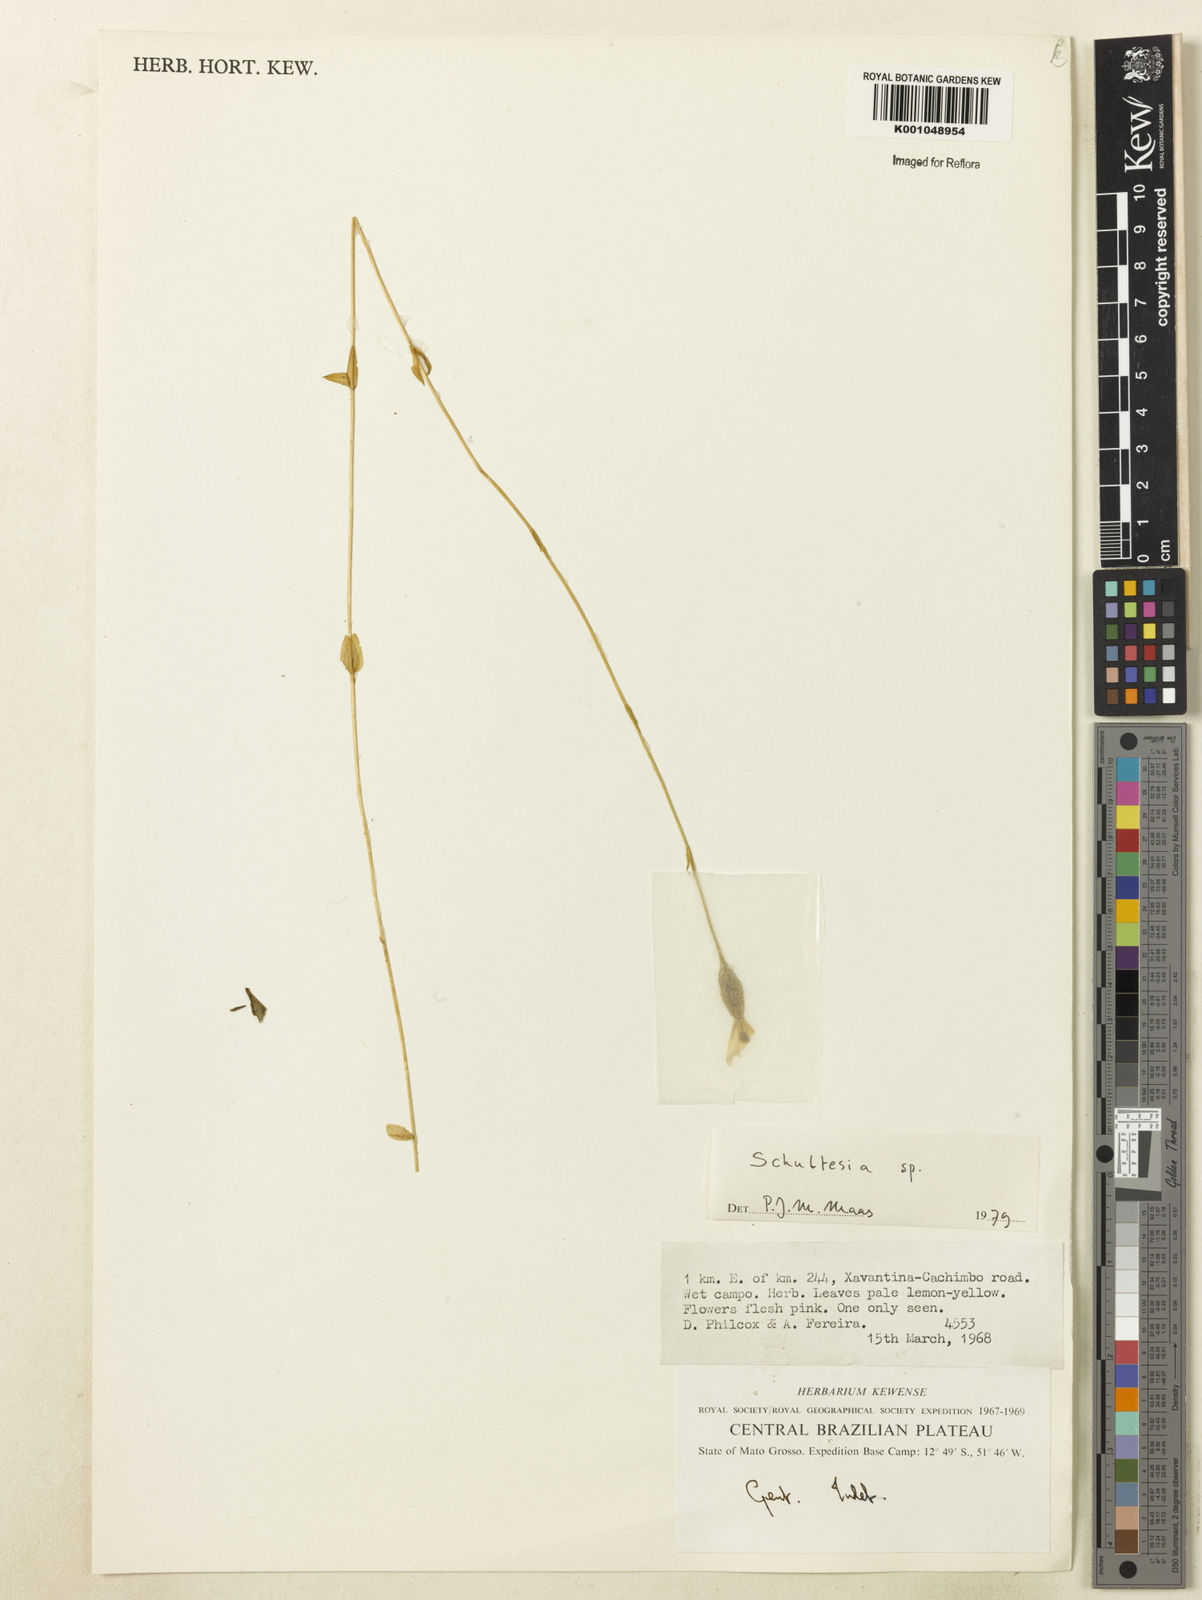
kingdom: Plantae
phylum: Tracheophyta
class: Magnoliopsida
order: Gentianales
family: Gentianaceae
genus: Schultesia
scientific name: Schultesia
